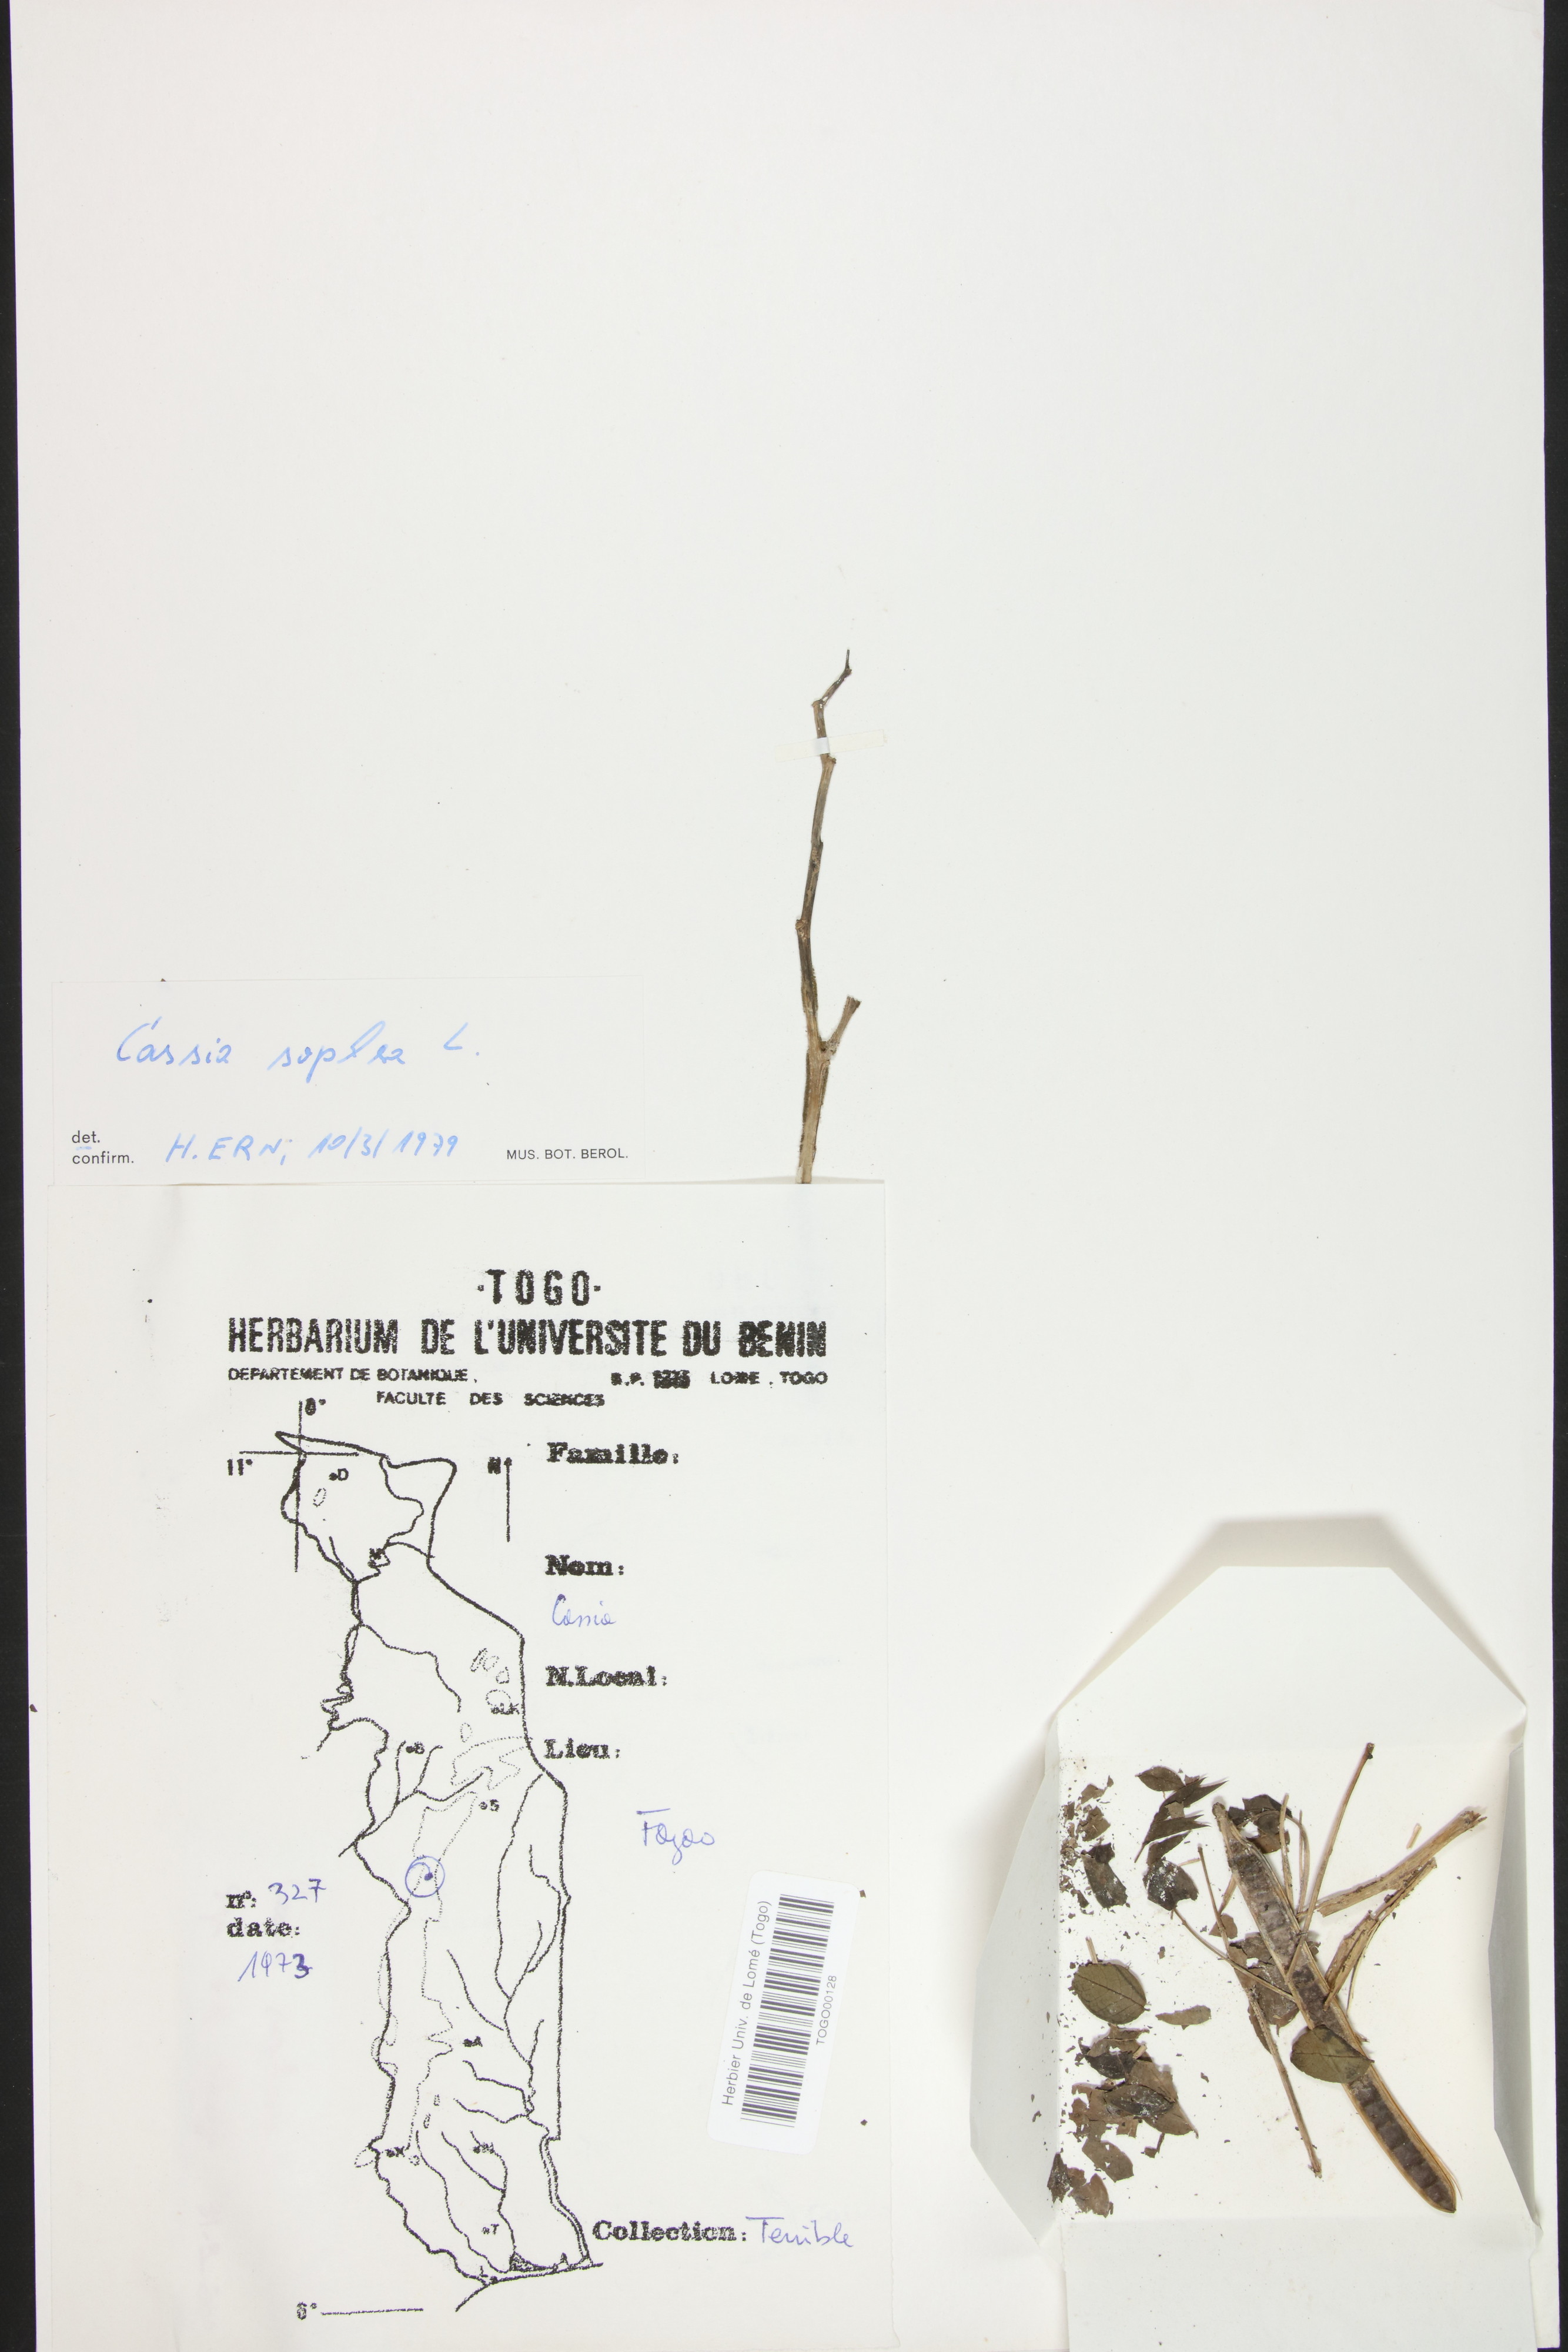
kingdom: Plantae
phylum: Tracheophyta
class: Magnoliopsida
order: Fabales
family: Fabaceae
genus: Senna
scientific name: Senna sophera
